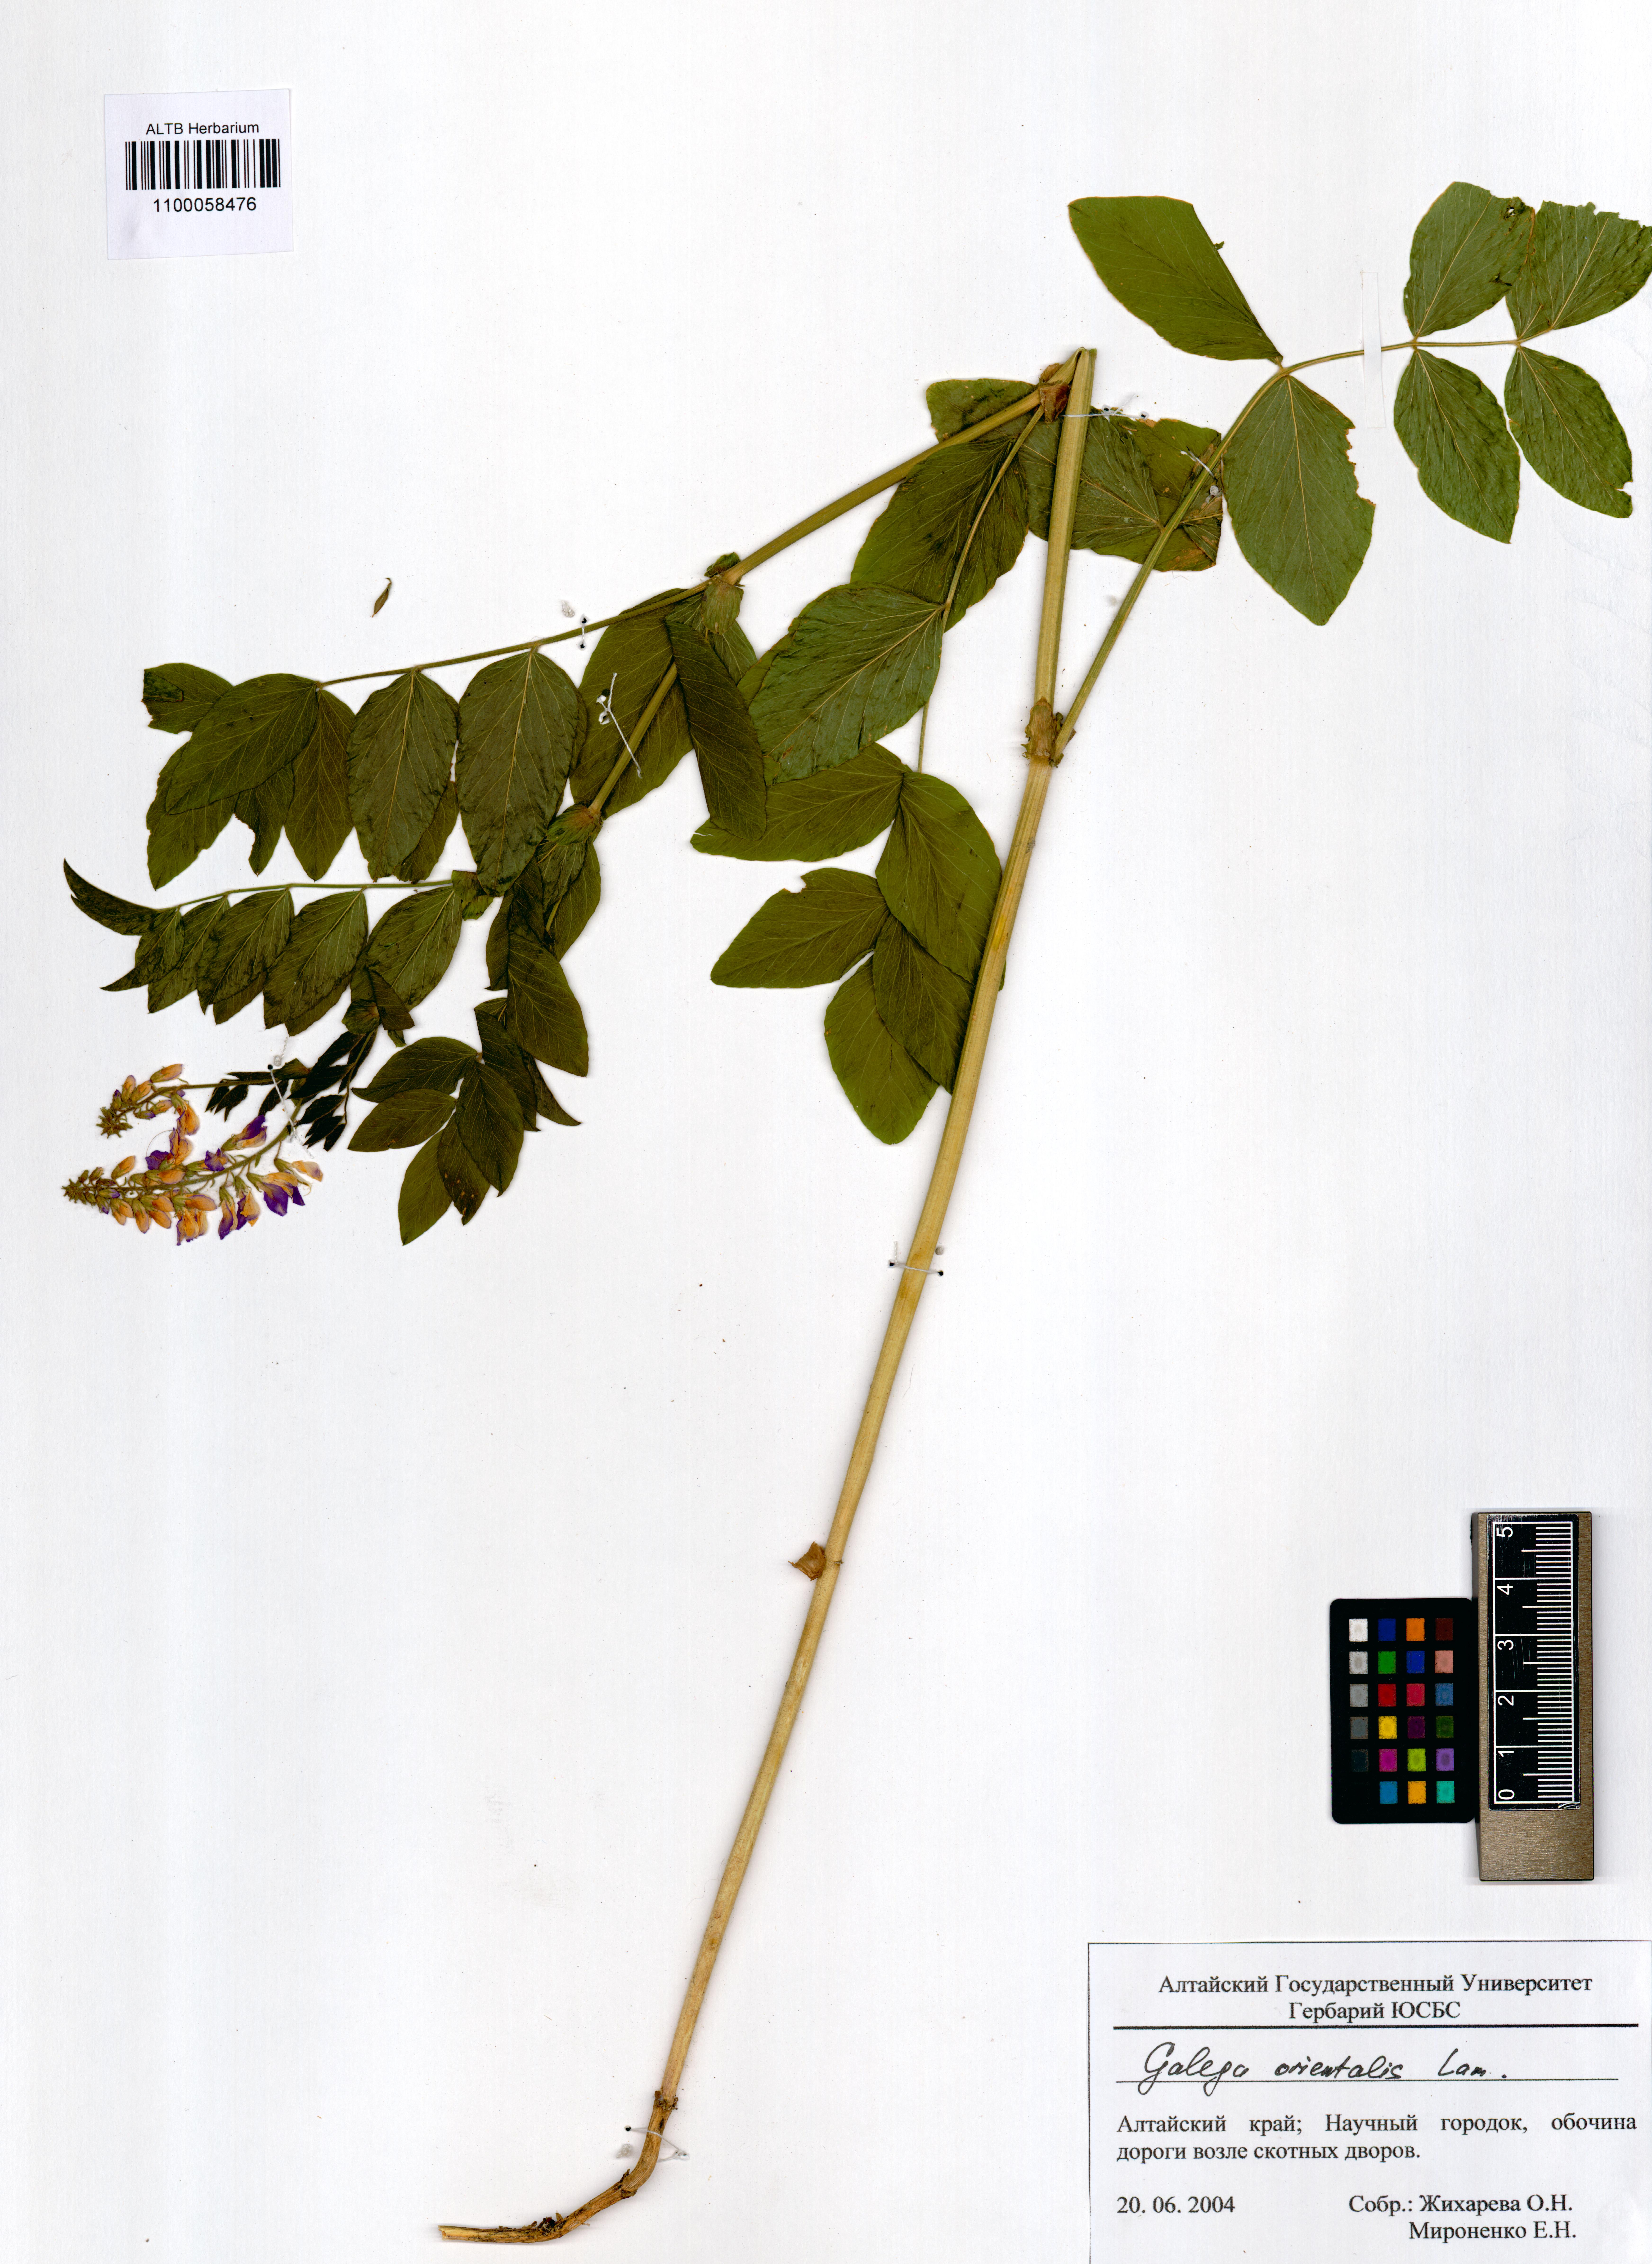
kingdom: Plantae
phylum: Tracheophyta
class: Magnoliopsida
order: Fabales
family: Fabaceae
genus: Galega
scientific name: Galega orientalis
